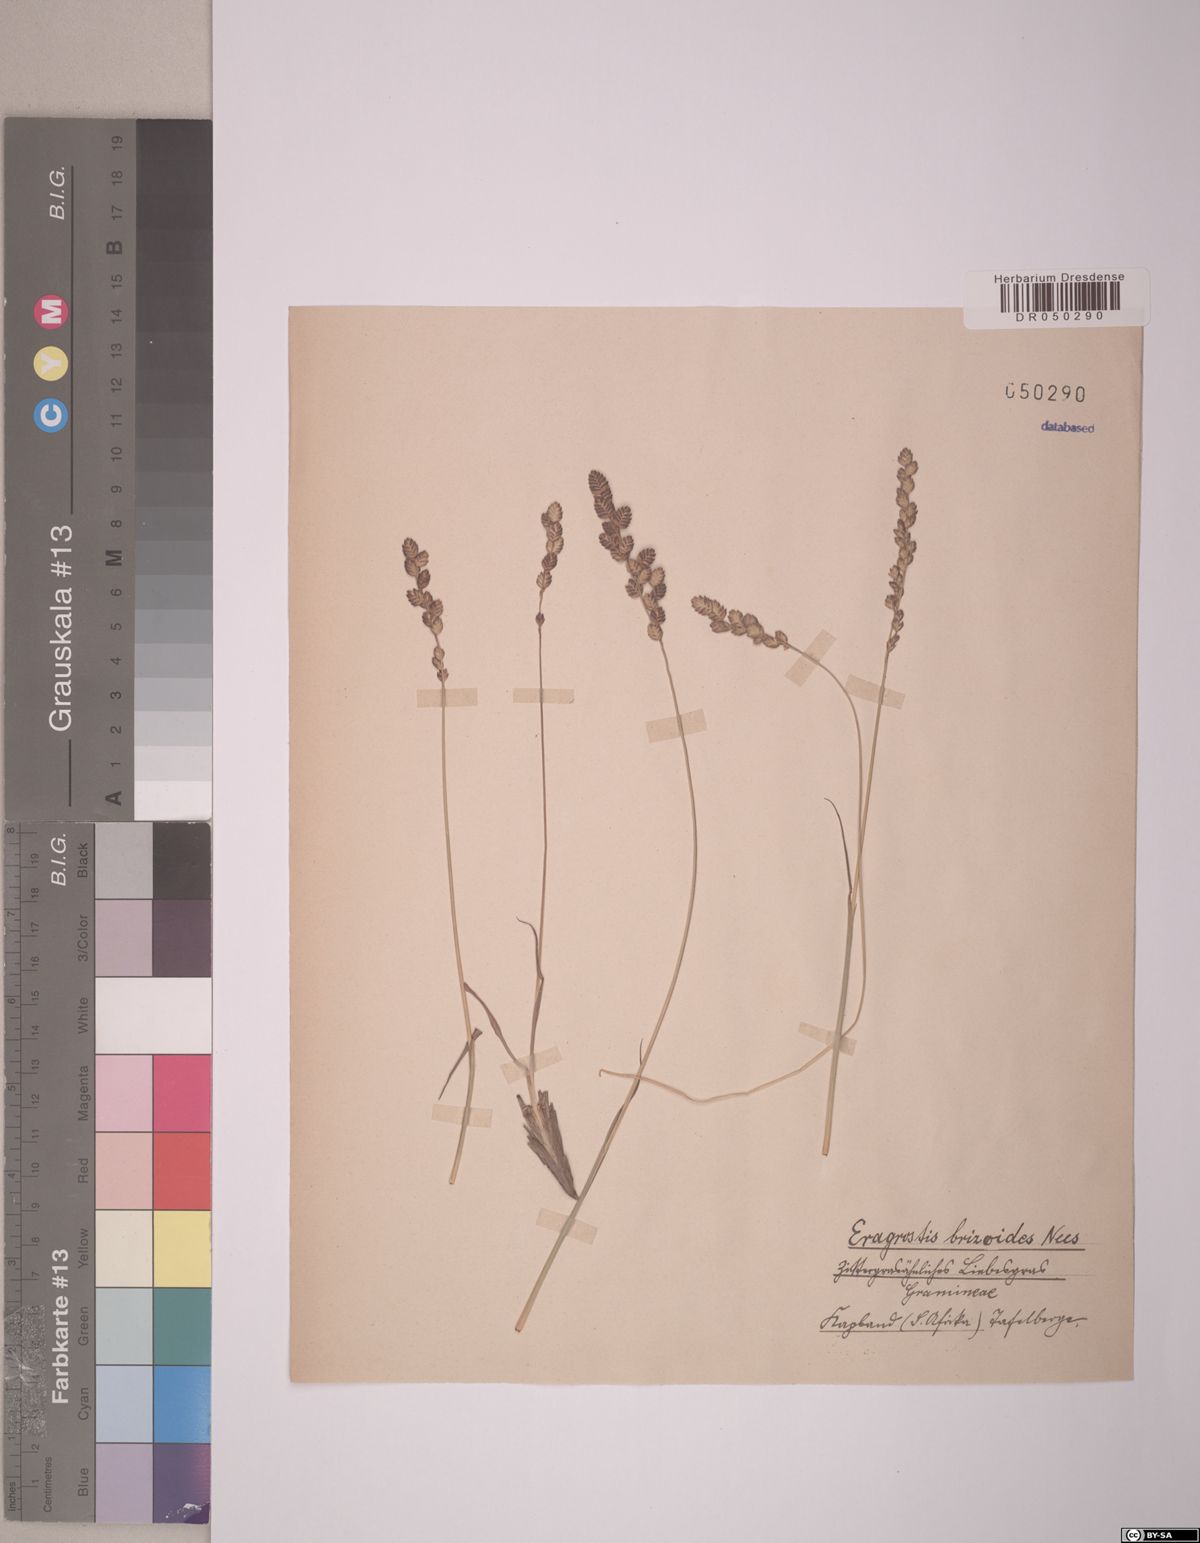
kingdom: Plantae
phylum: Tracheophyta
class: Liliopsida
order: Poales
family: Poaceae
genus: Eragrostis
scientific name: Eragrostis capensis
